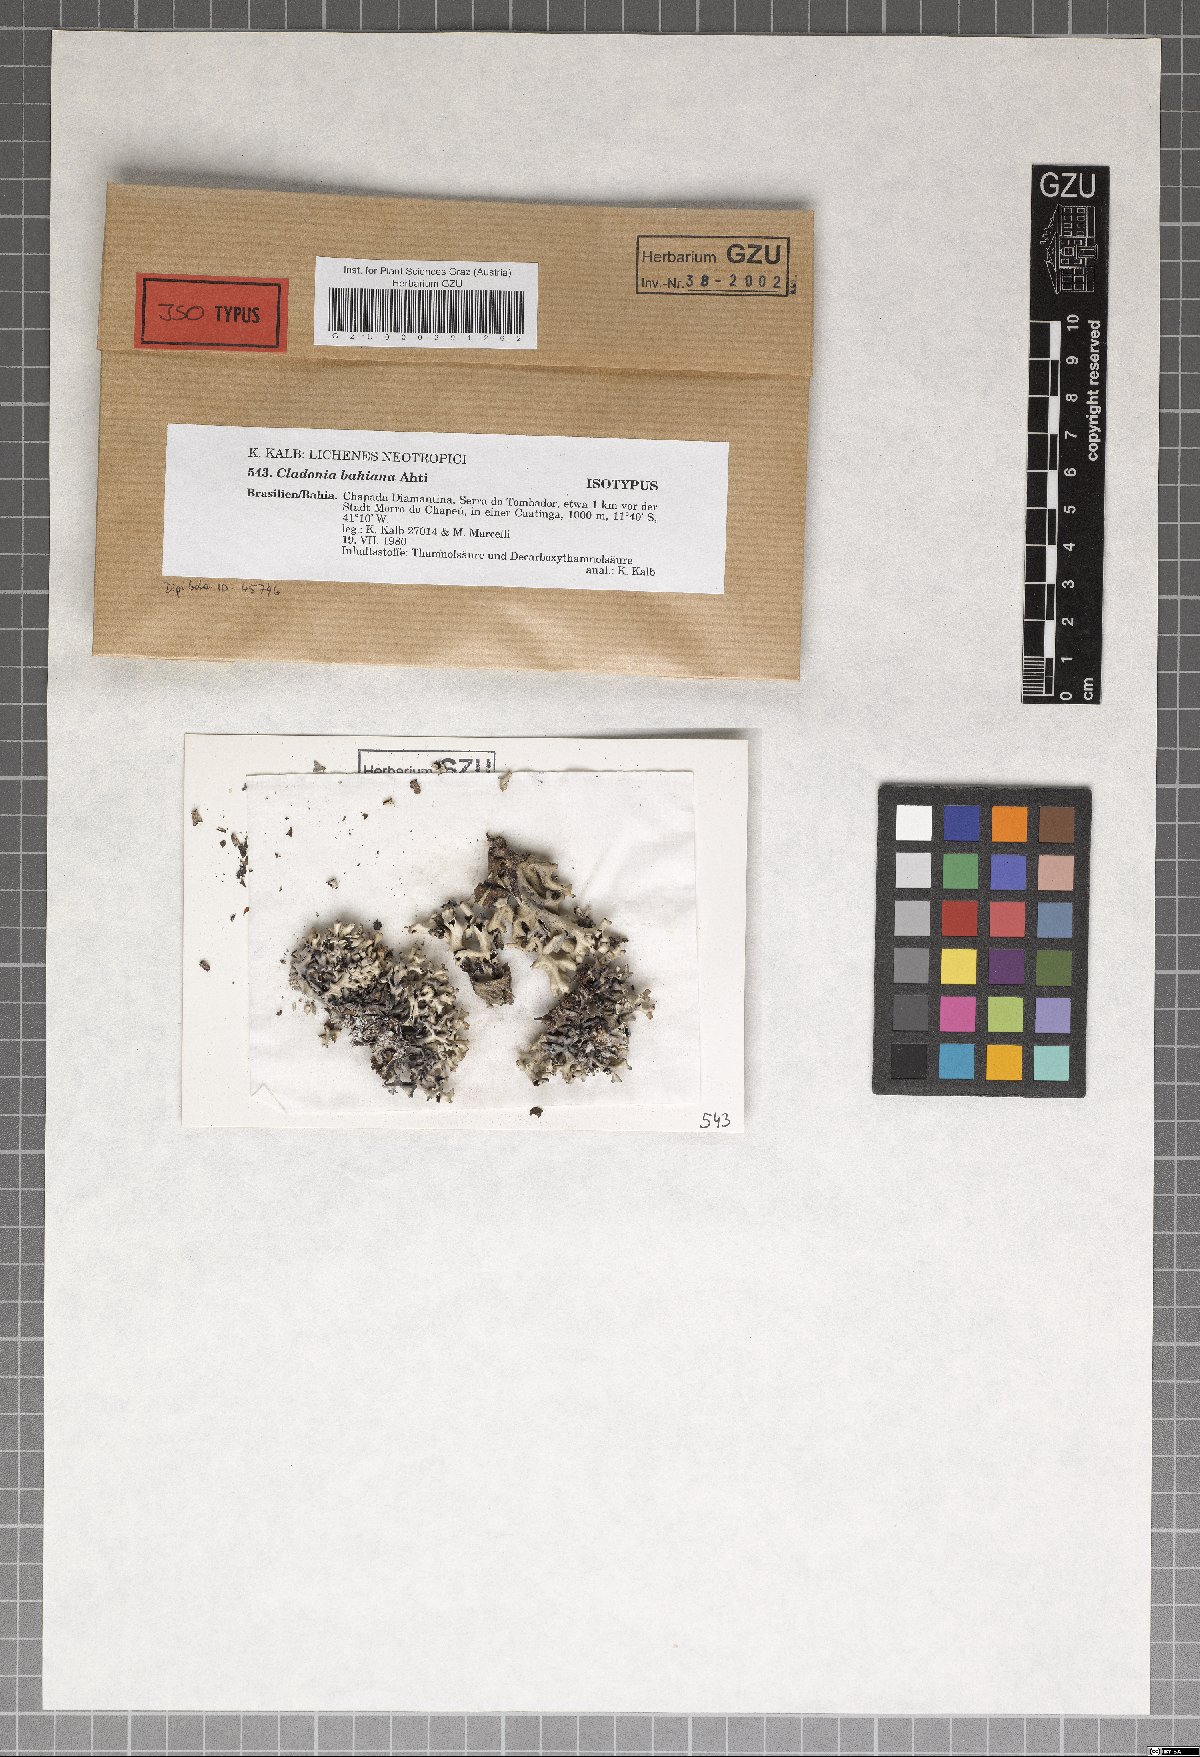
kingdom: Plantae
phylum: Marchantiophyta
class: Marchantiopsida
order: Marchantiales
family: Monocleaceae
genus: Monoclea
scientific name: Monoclea
